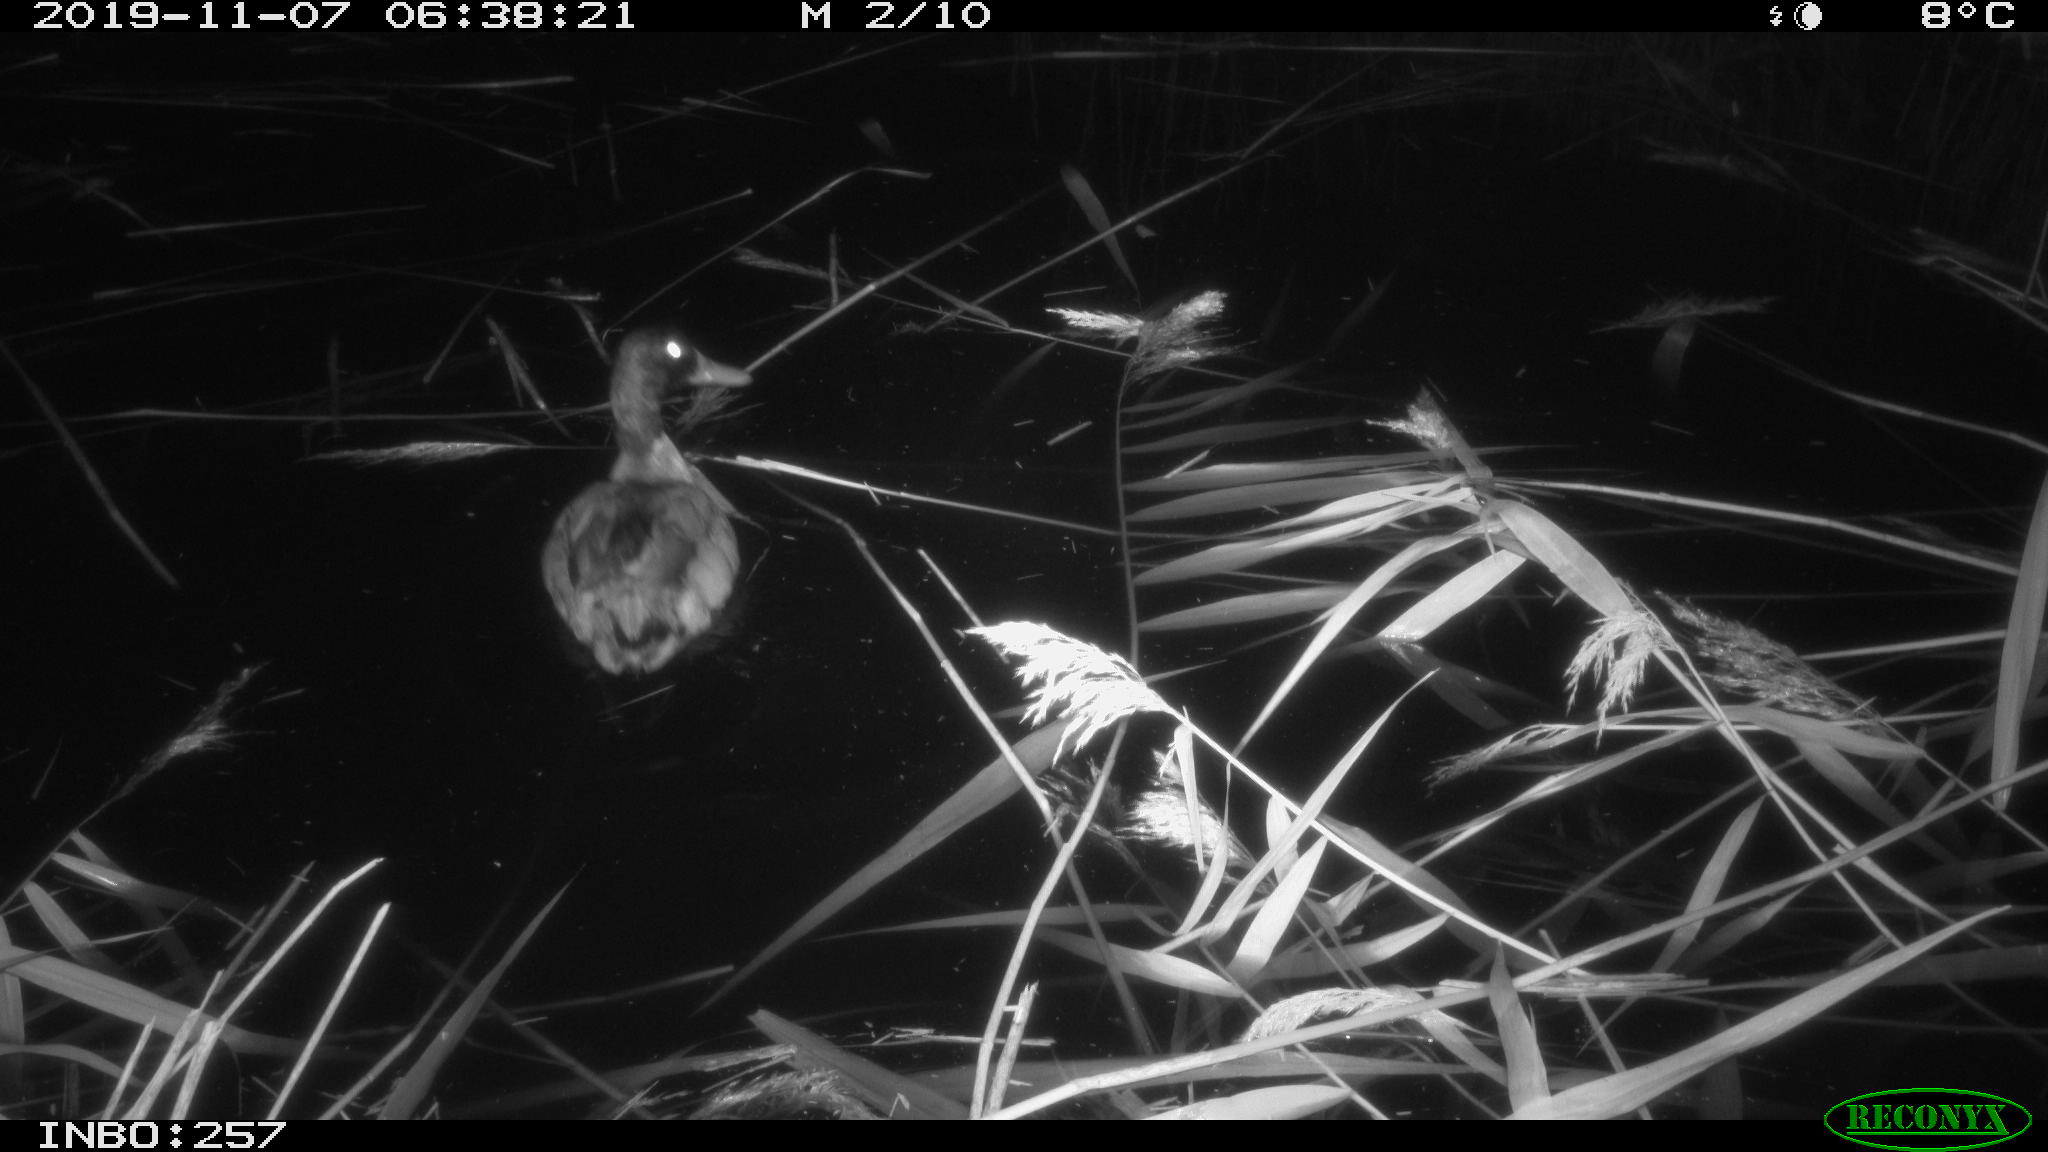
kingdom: Animalia
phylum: Chordata
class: Aves
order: Anseriformes
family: Anatidae
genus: Anas
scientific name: Anas platyrhynchos
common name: Mallard
